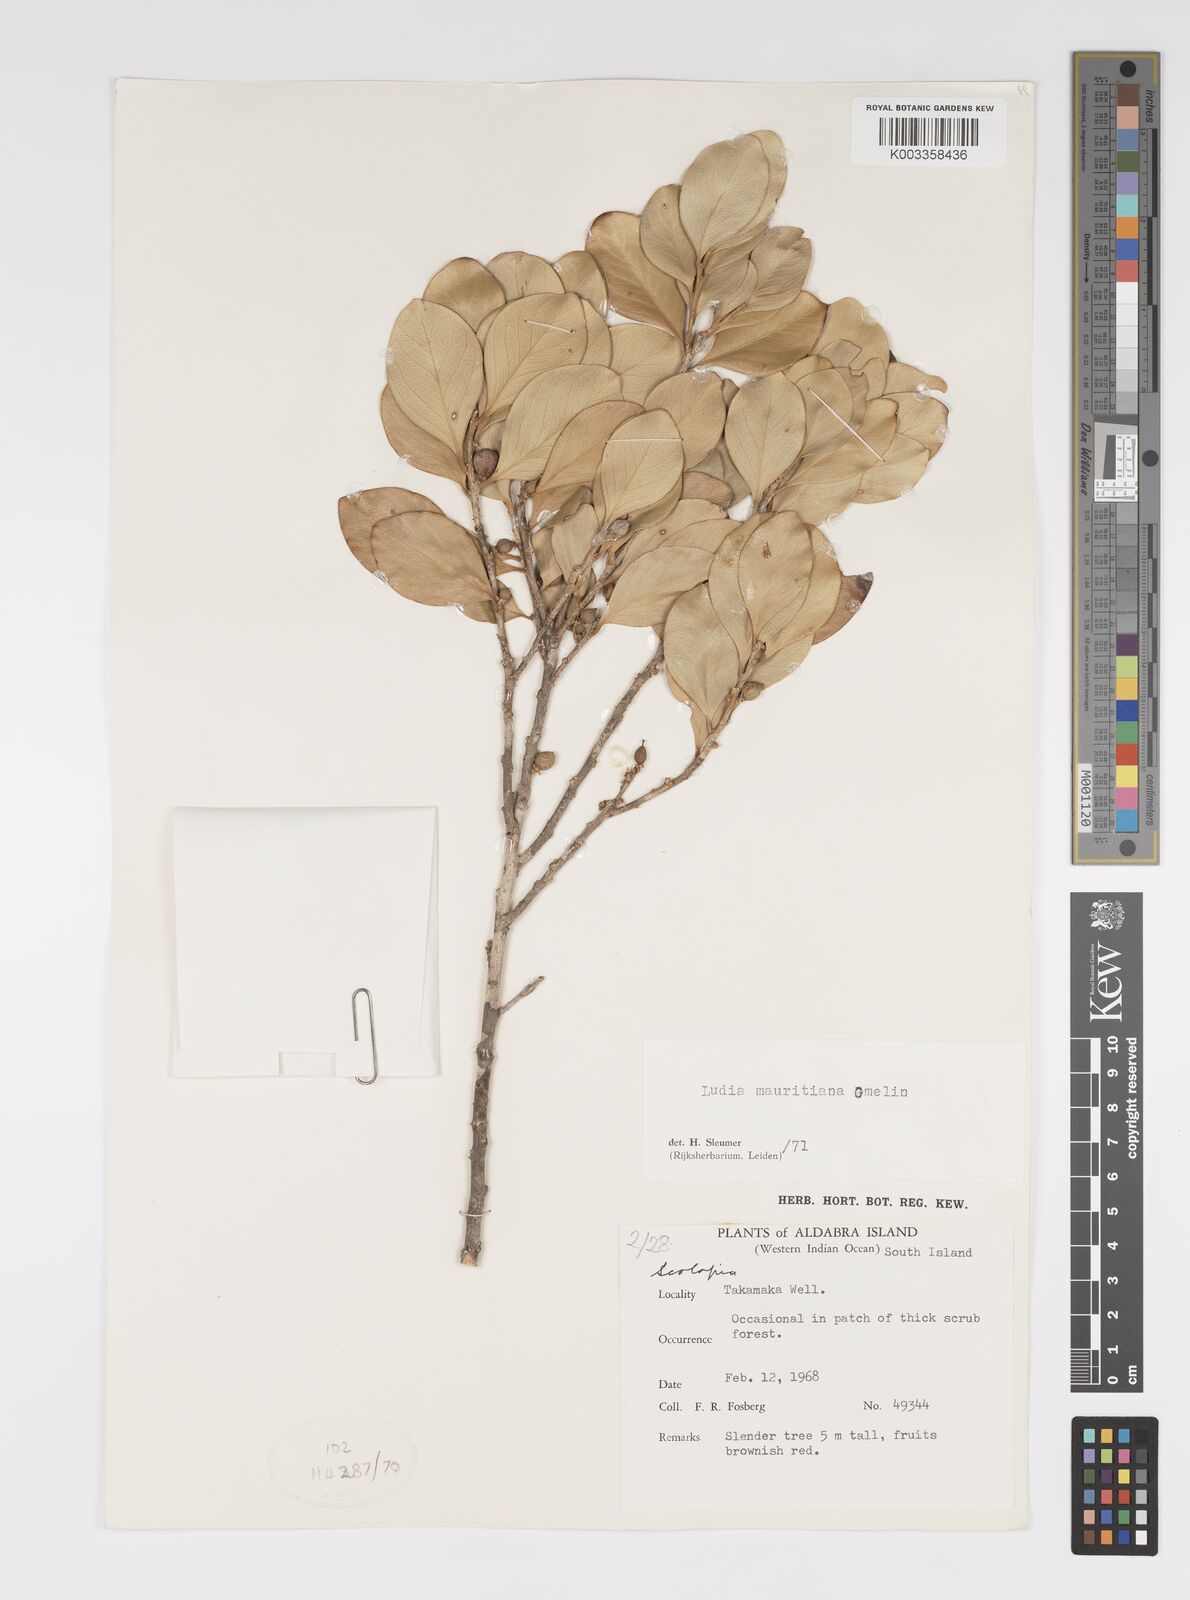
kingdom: Plantae
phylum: Tracheophyta
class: Magnoliopsida
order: Malpighiales
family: Salicaceae
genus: Ludia
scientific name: Ludia mauritiana
